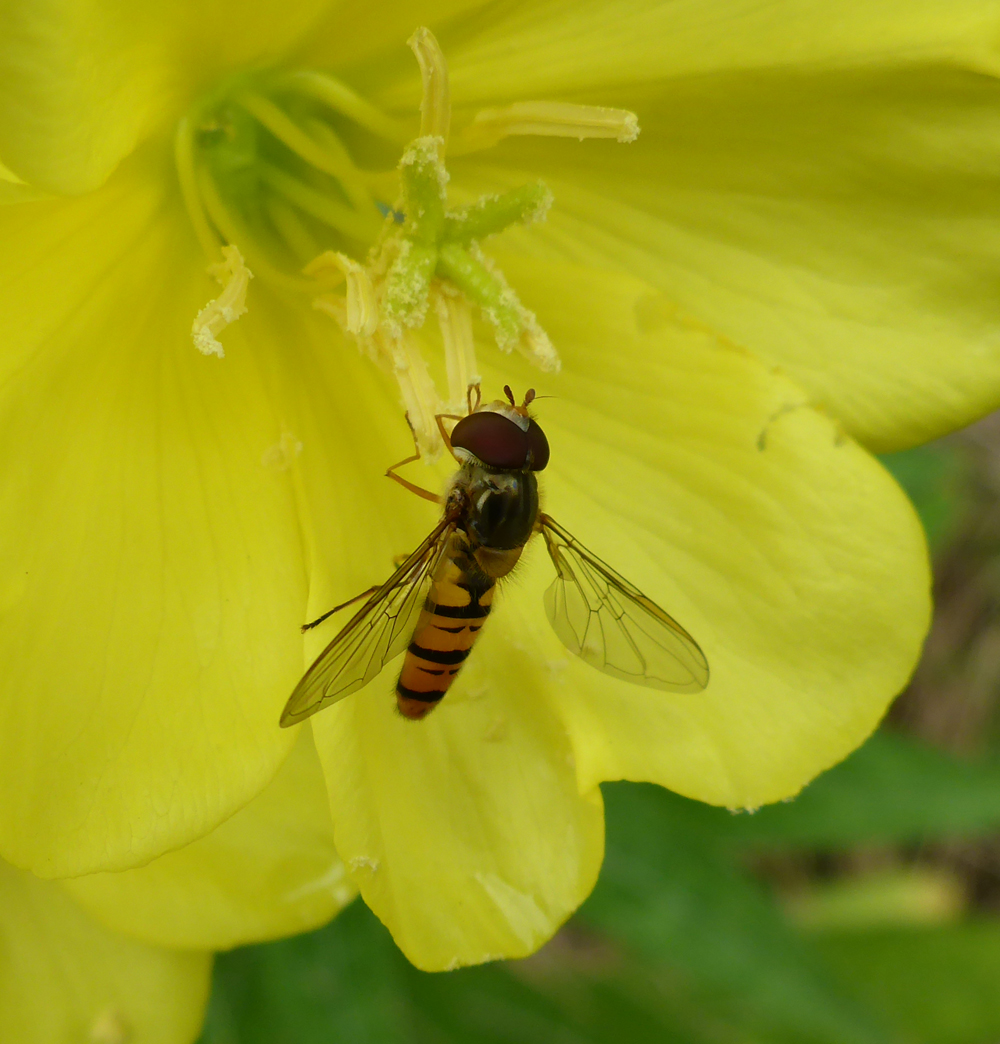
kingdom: Animalia
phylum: Arthropoda
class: Insecta
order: Diptera
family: Syrphidae
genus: Episyrphus
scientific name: Episyrphus balteatus
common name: Marmalade hoverfly
